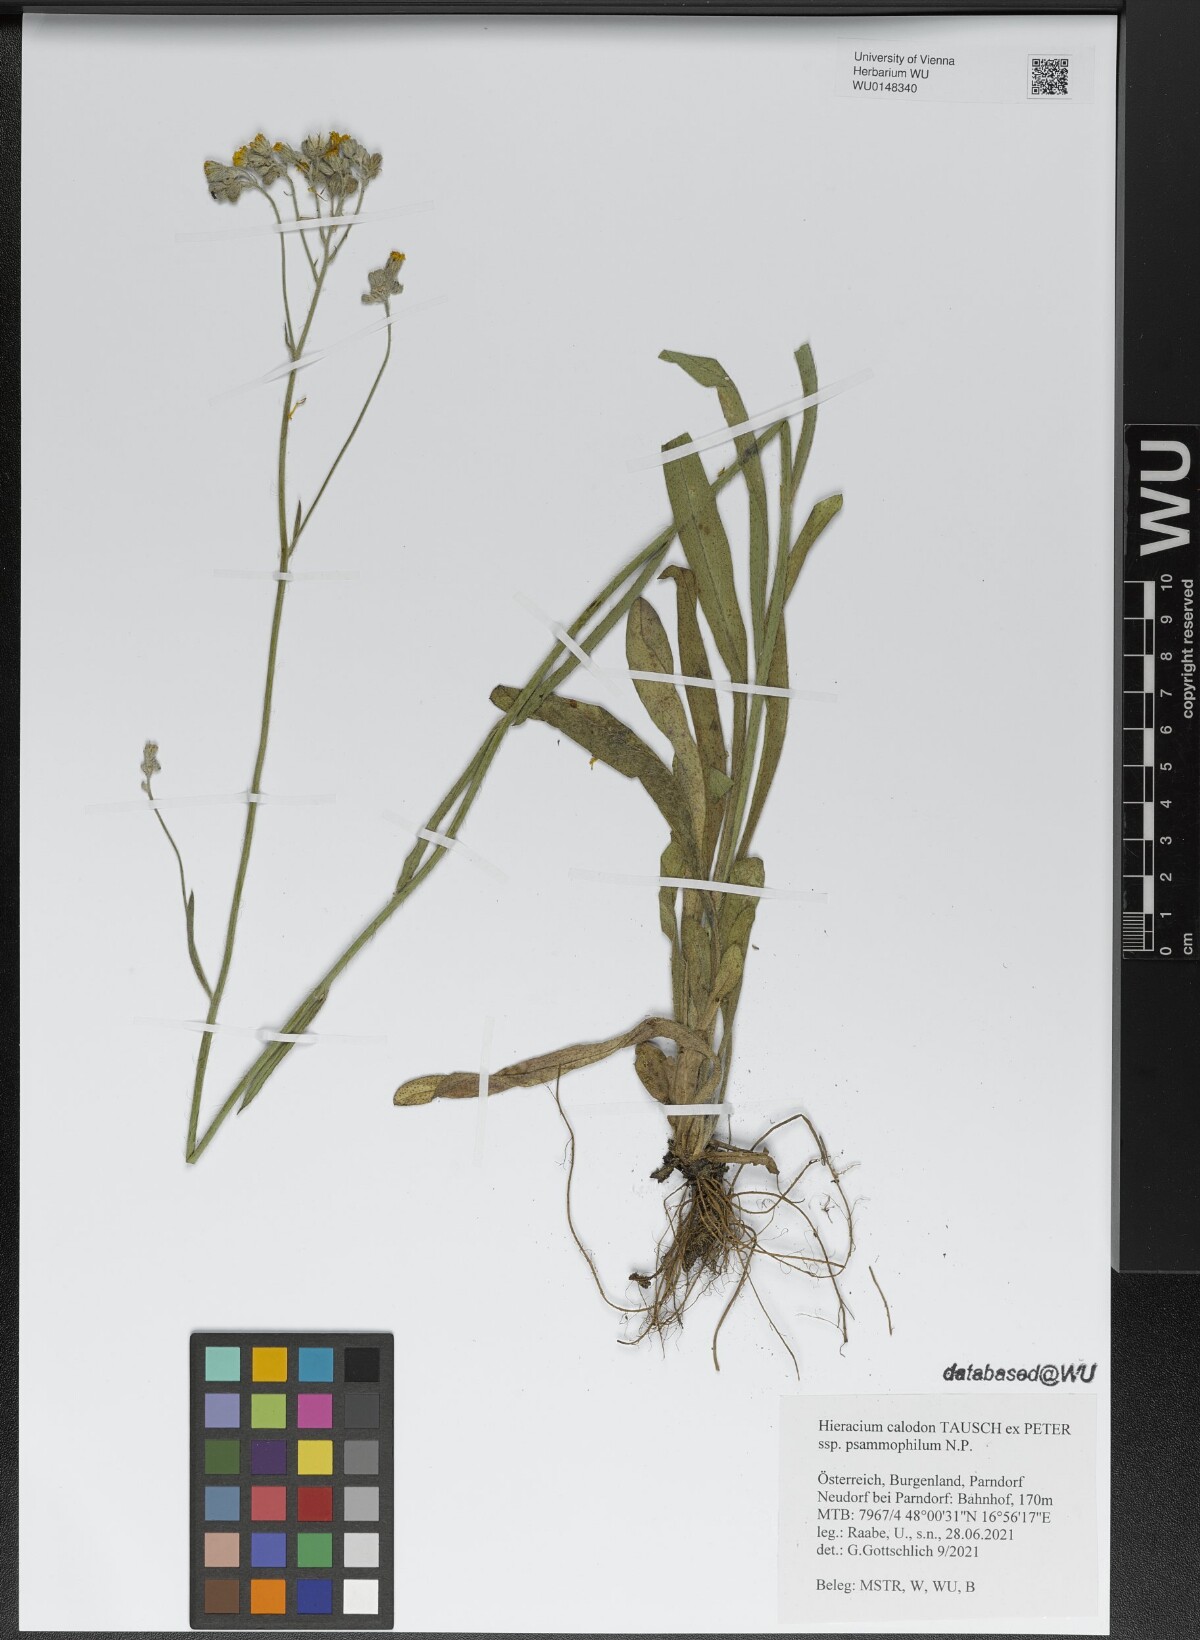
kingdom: Plantae
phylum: Tracheophyta
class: Magnoliopsida
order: Asterales
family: Asteraceae
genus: Pilosella
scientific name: Pilosella calodon
